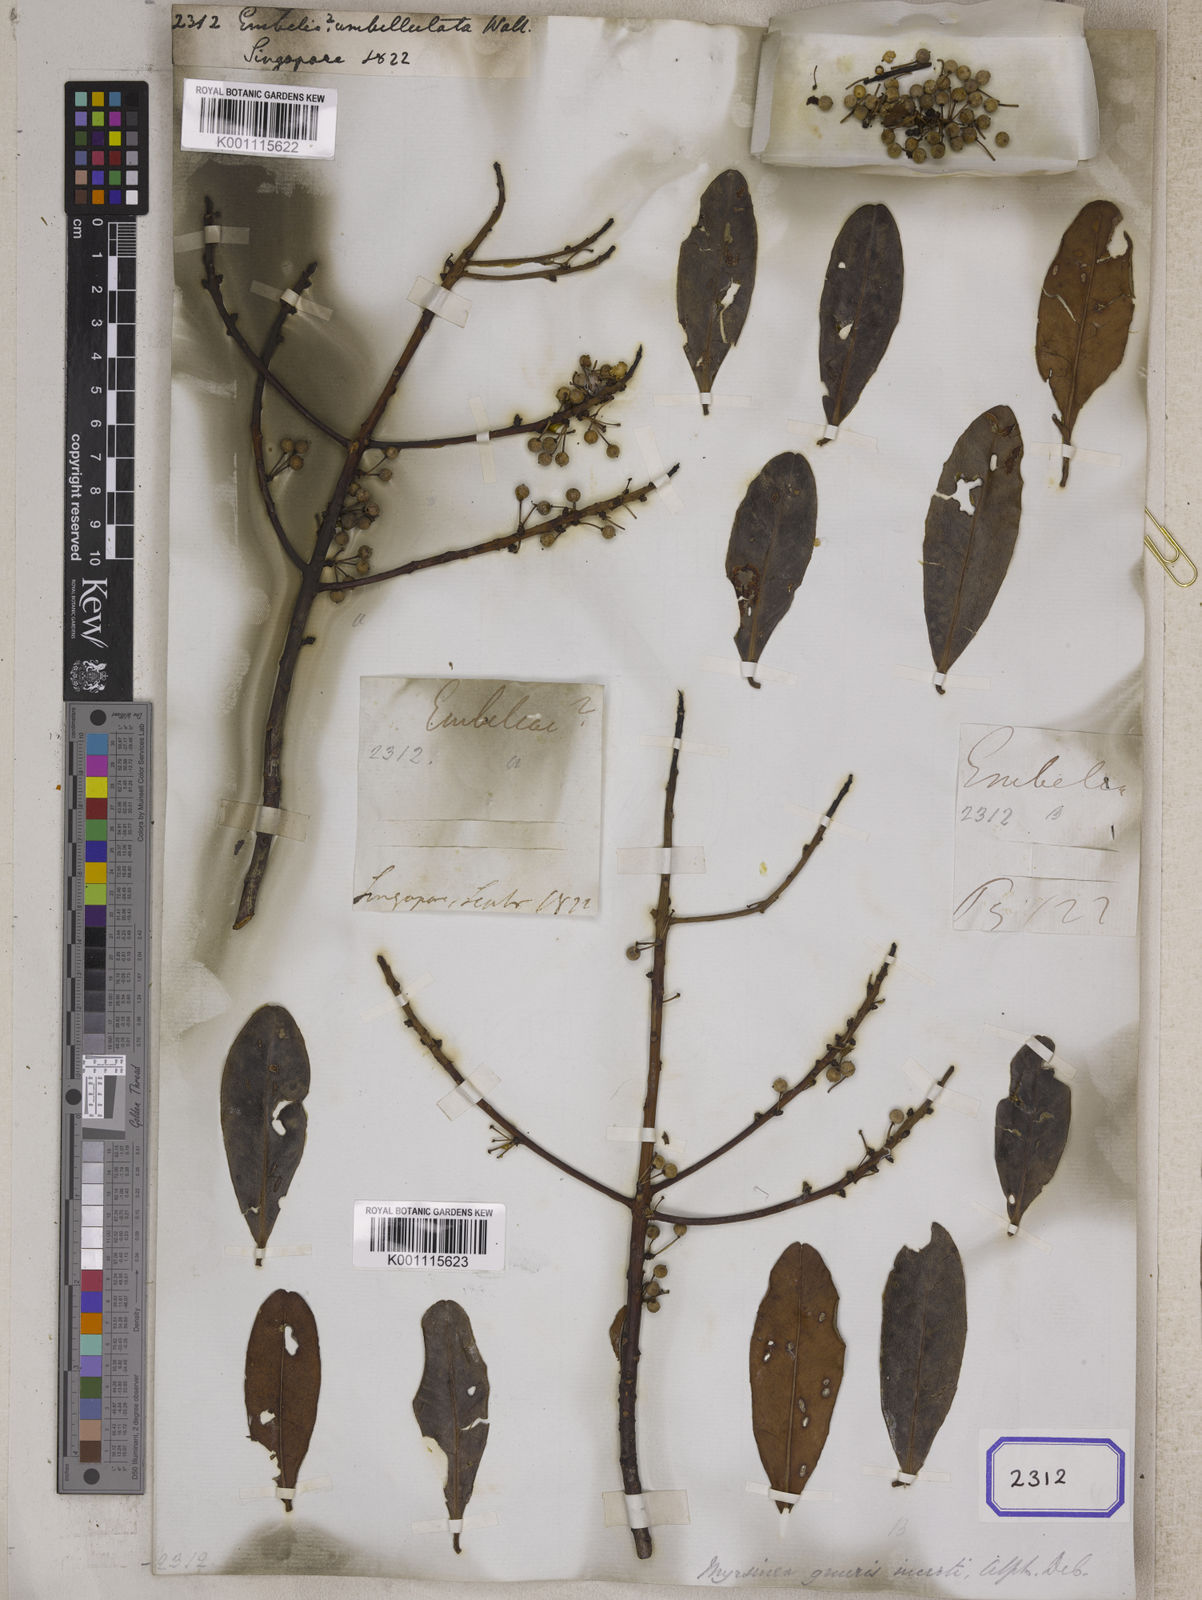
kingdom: Plantae
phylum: Tracheophyta
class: Magnoliopsida
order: Ericales
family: Primulaceae
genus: Myrsine
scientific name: Myrsine capitellata
